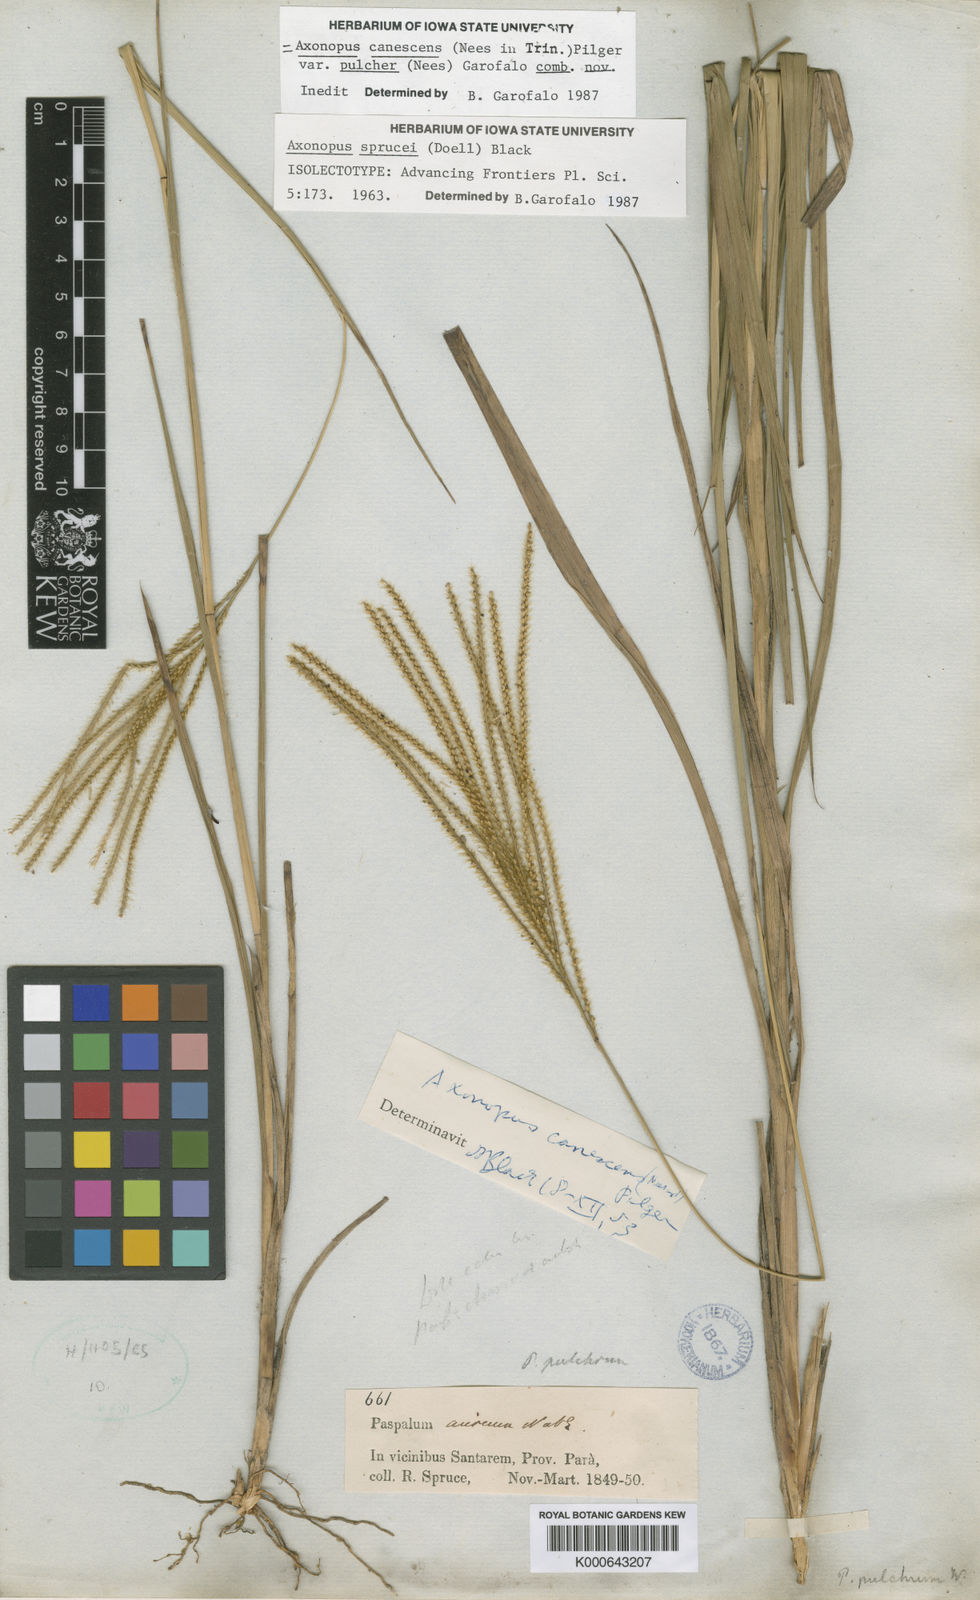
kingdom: Plantae
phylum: Tracheophyta
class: Liliopsida
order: Poales
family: Poaceae
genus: Axonopus
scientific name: Axonopus aureus
